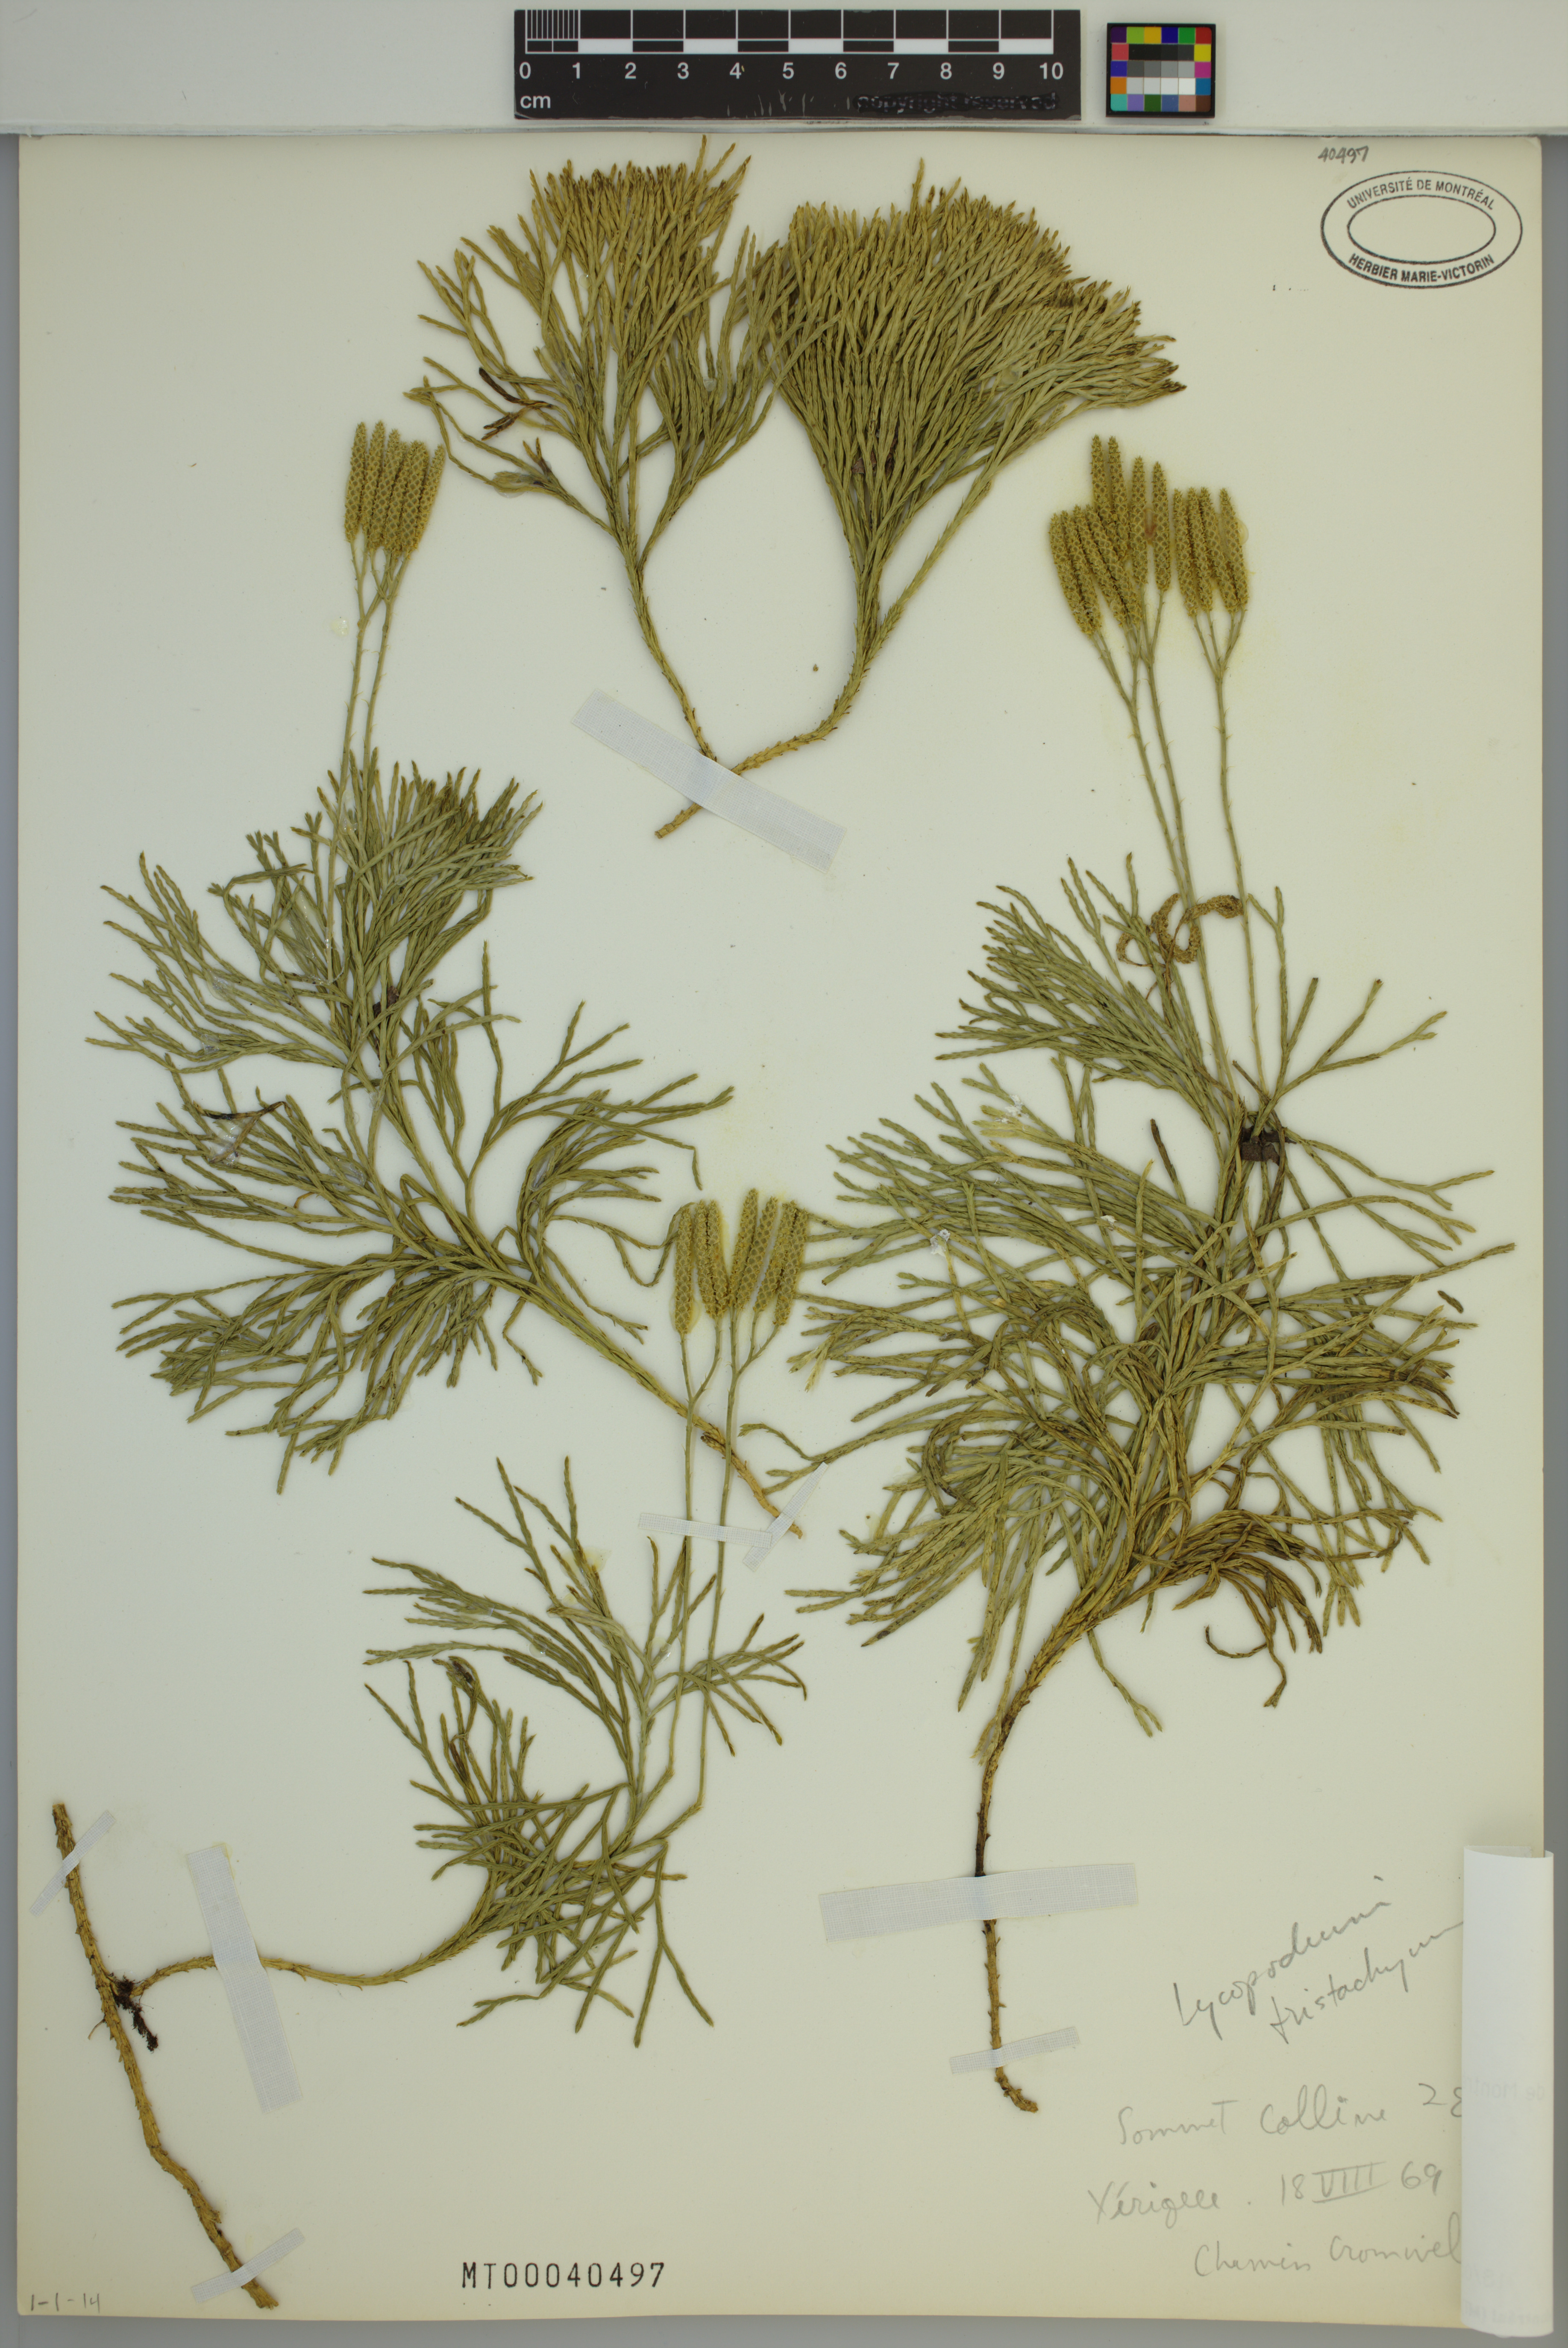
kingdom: Plantae
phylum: Tracheophyta
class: Lycopodiopsida
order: Lycopodiales
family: Lycopodiaceae
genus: Diphasiastrum
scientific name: Diphasiastrum tristachyum
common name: Blue ground-cedar
